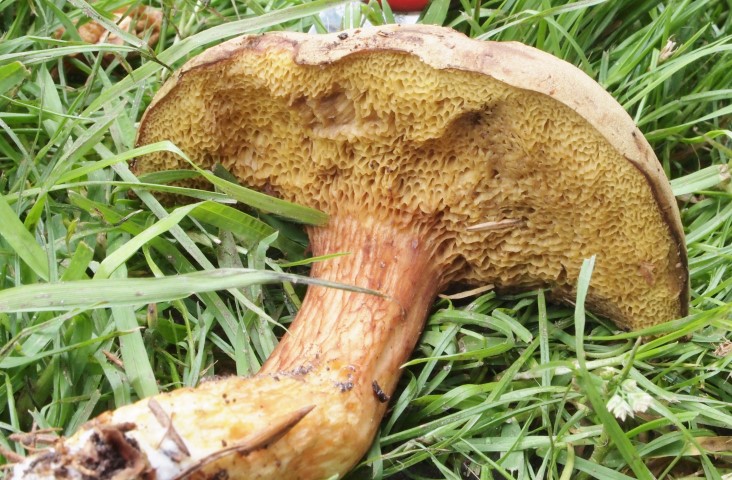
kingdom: Fungi
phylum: Basidiomycota
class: Agaricomycetes
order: Boletales
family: Boletaceae
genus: Xerocomus
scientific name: Xerocomus ferrugineus
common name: vaskeskinds-rørhat
